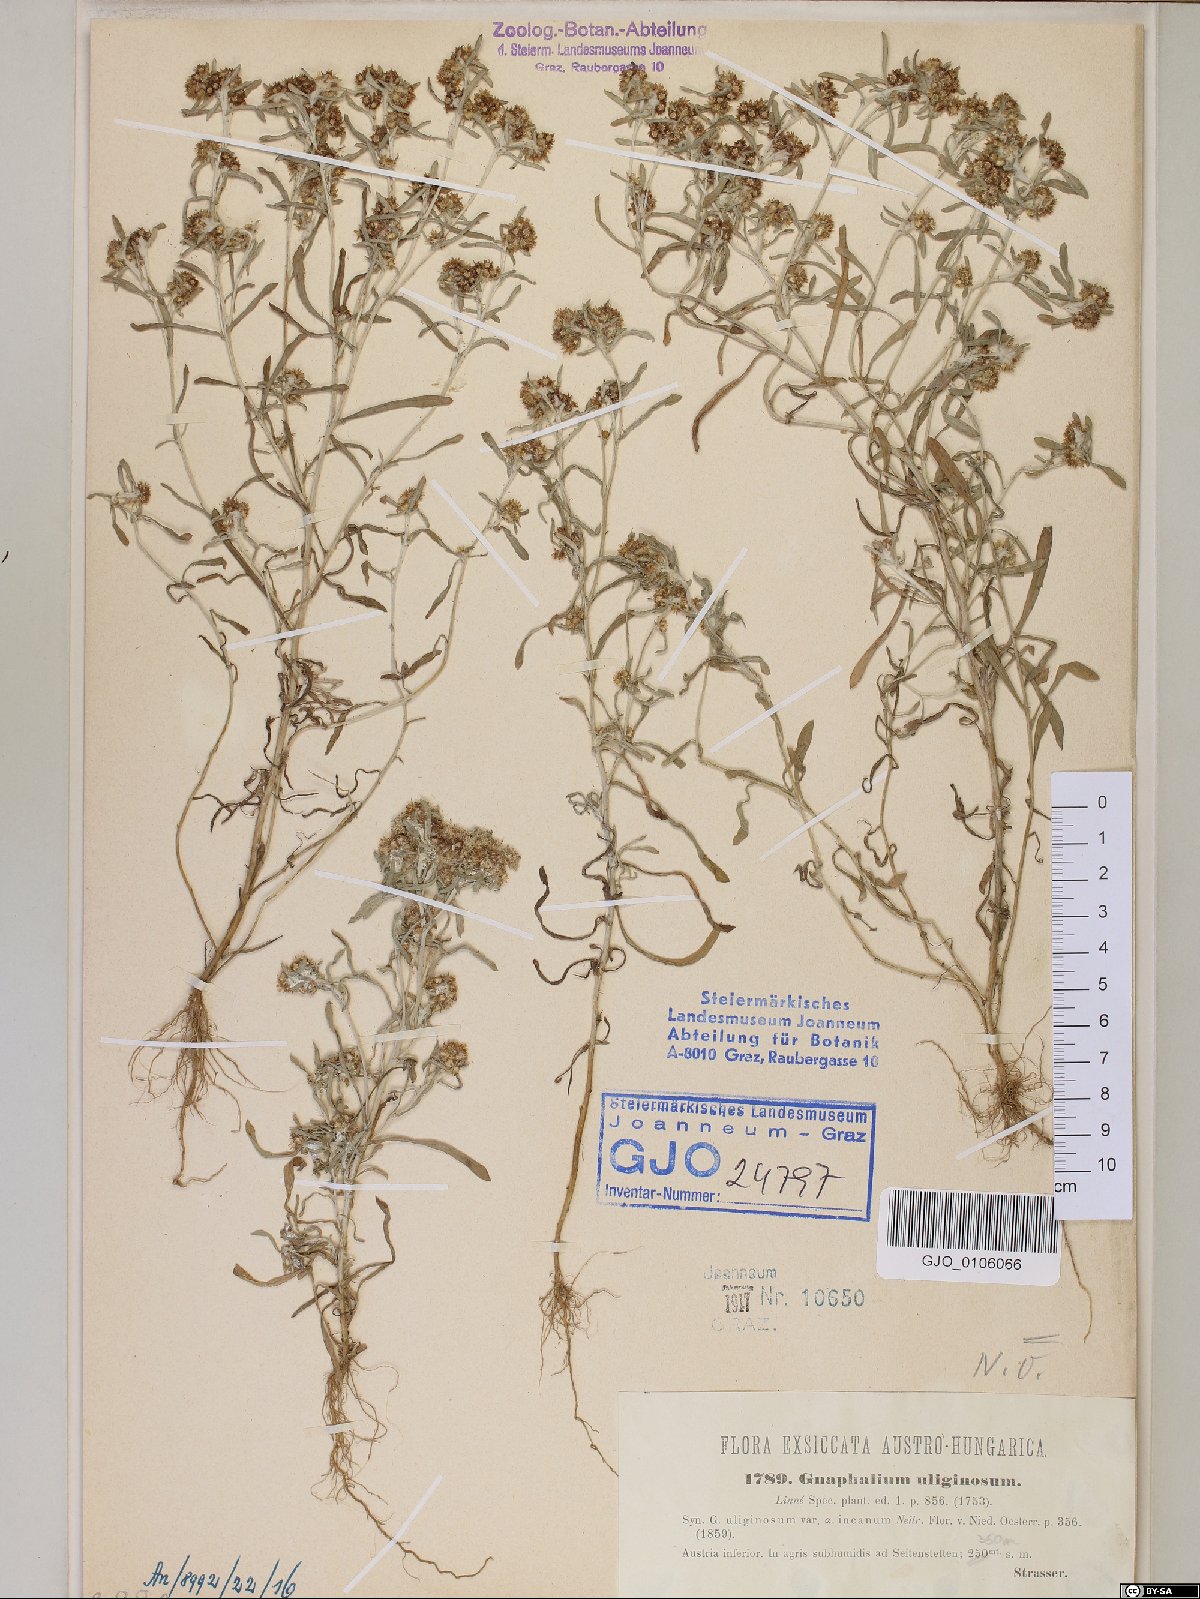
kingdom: Plantae
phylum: Tracheophyta
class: Magnoliopsida
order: Asterales
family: Asteraceae
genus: Gnaphalium
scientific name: Gnaphalium uliginosum
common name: Marsh cudweed
